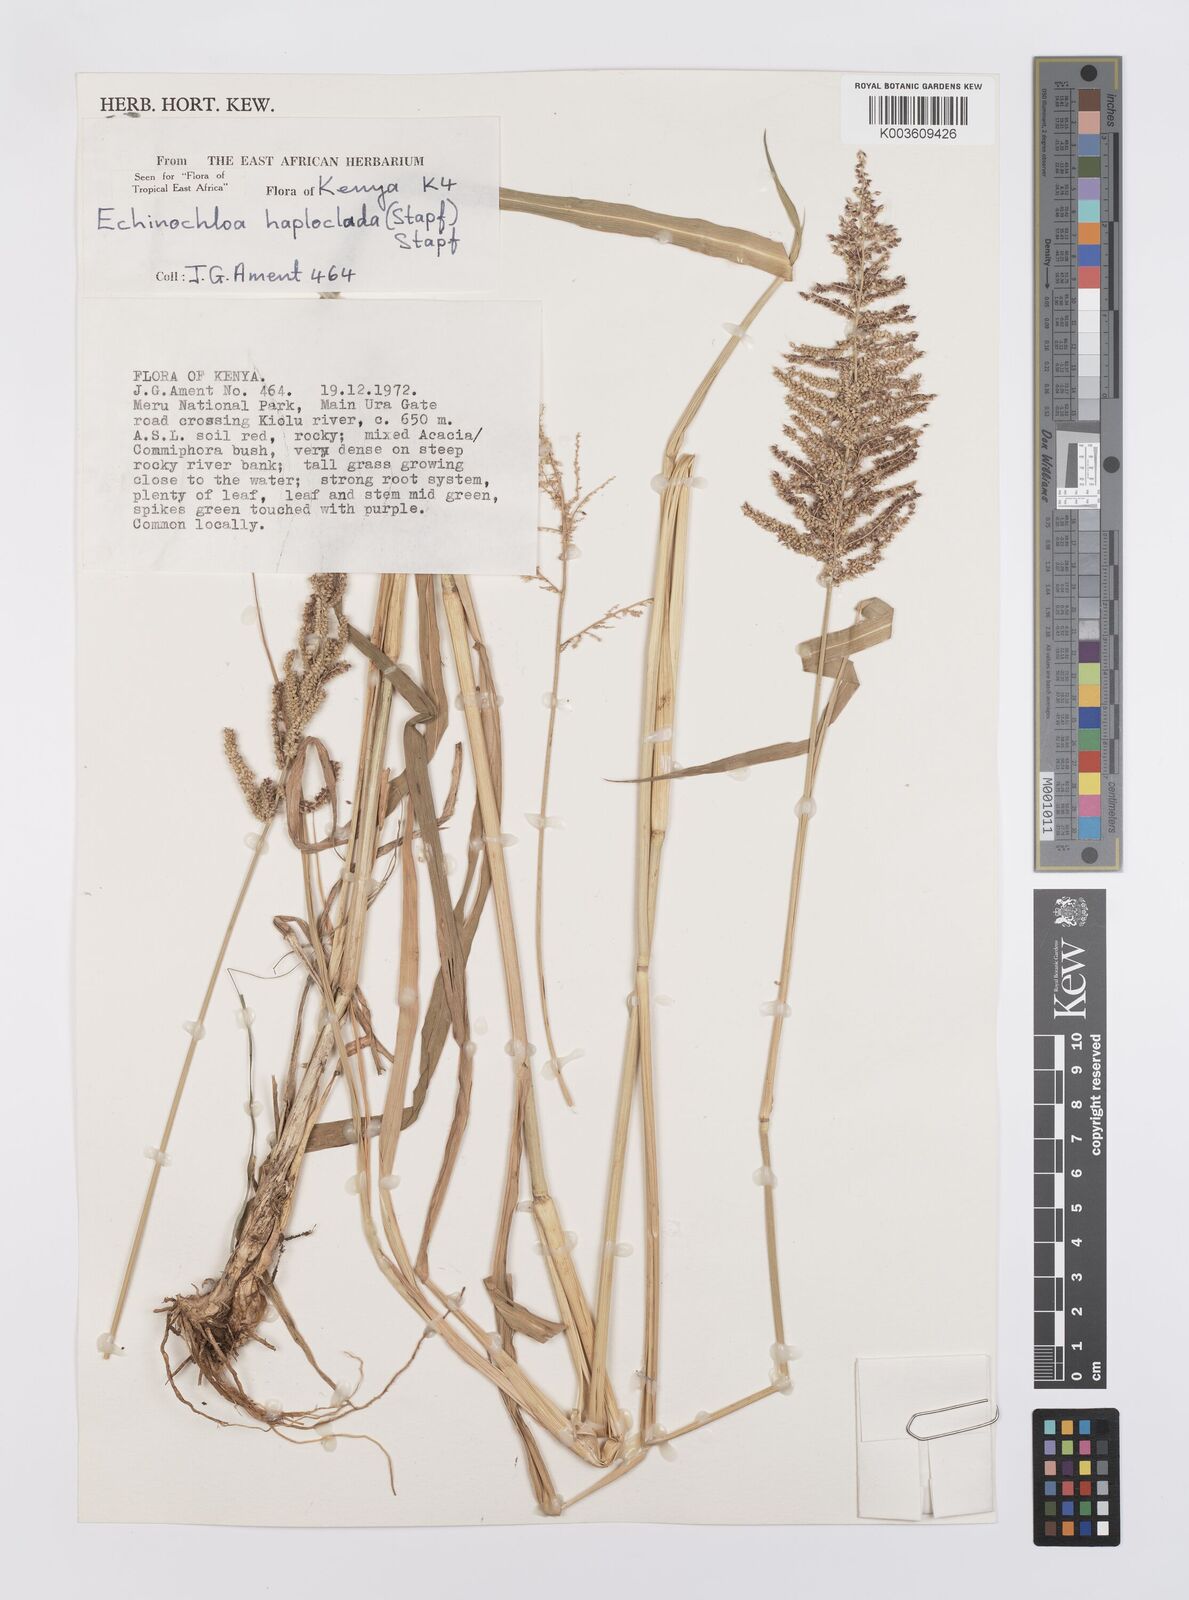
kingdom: Plantae
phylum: Tracheophyta
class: Liliopsida
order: Poales
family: Poaceae
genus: Echinochloa
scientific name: Echinochloa haploclada
